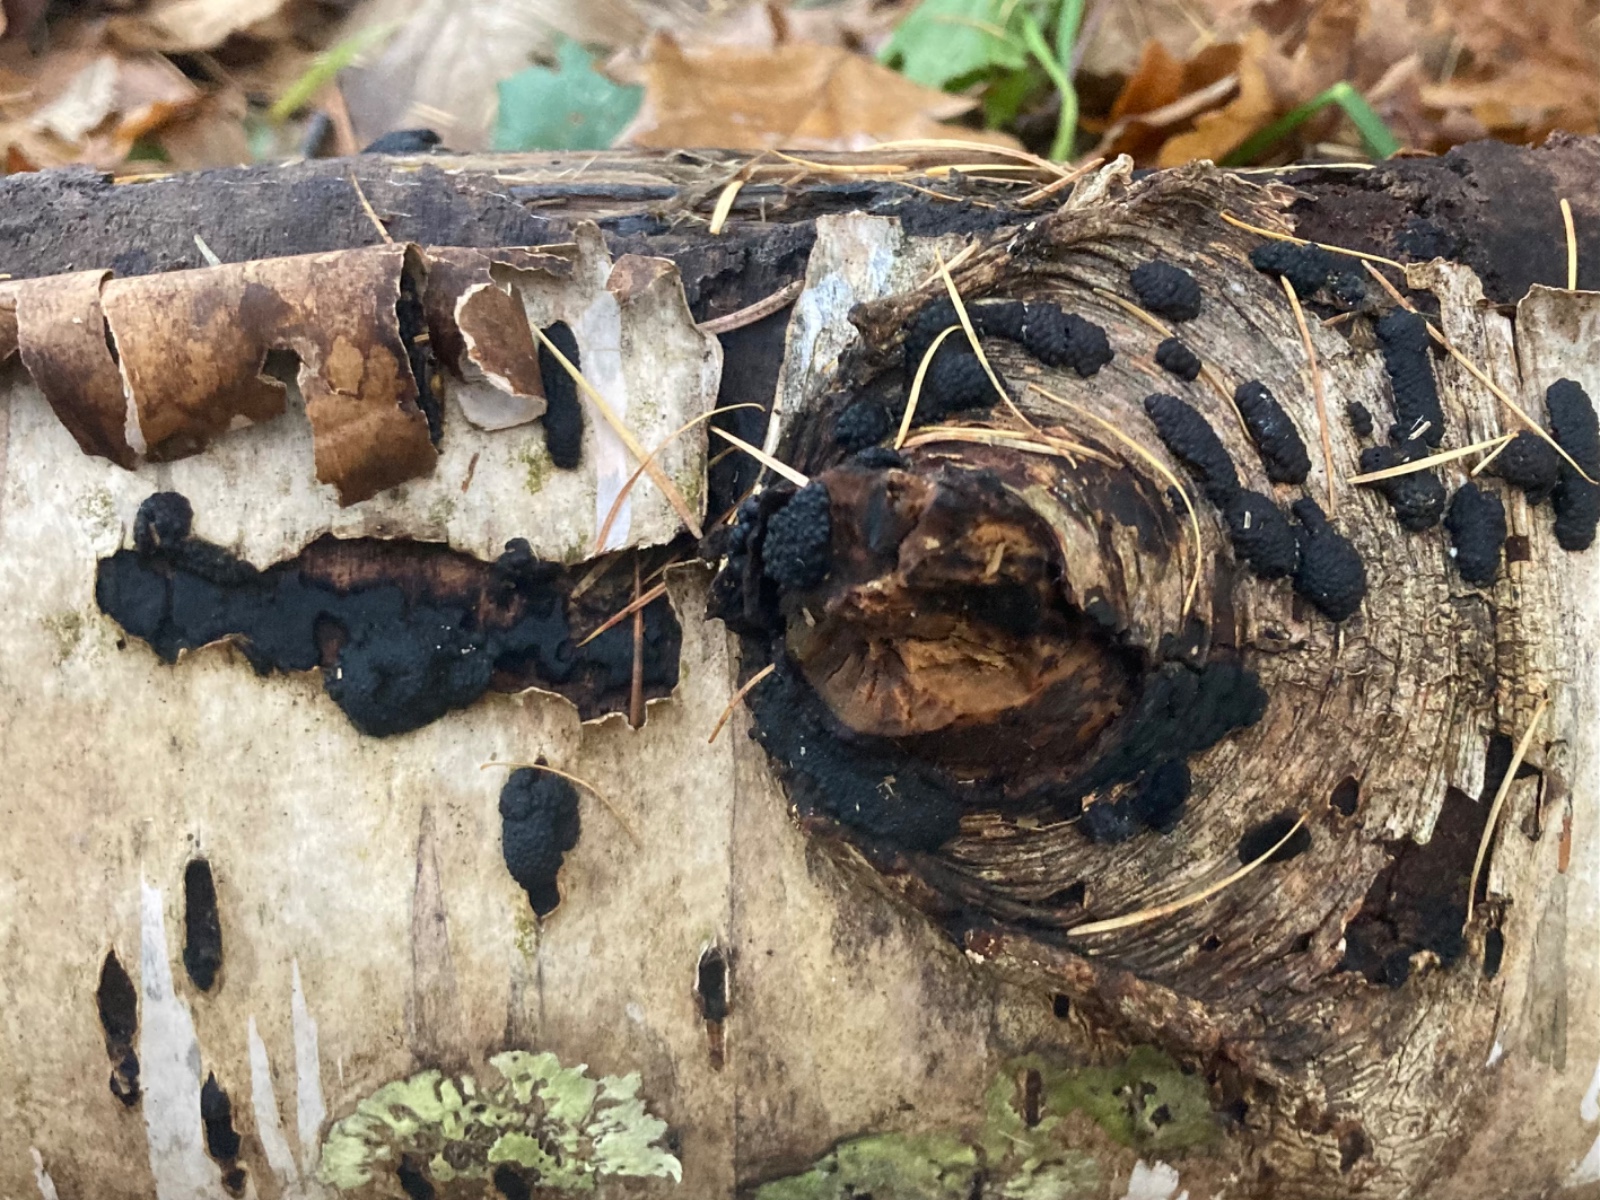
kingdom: Fungi
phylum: Ascomycota
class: Sordariomycetes
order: Xylariales
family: Hypoxylaceae
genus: Jackrogersella
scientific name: Jackrogersella multiformis
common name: foranderlig kulbær
